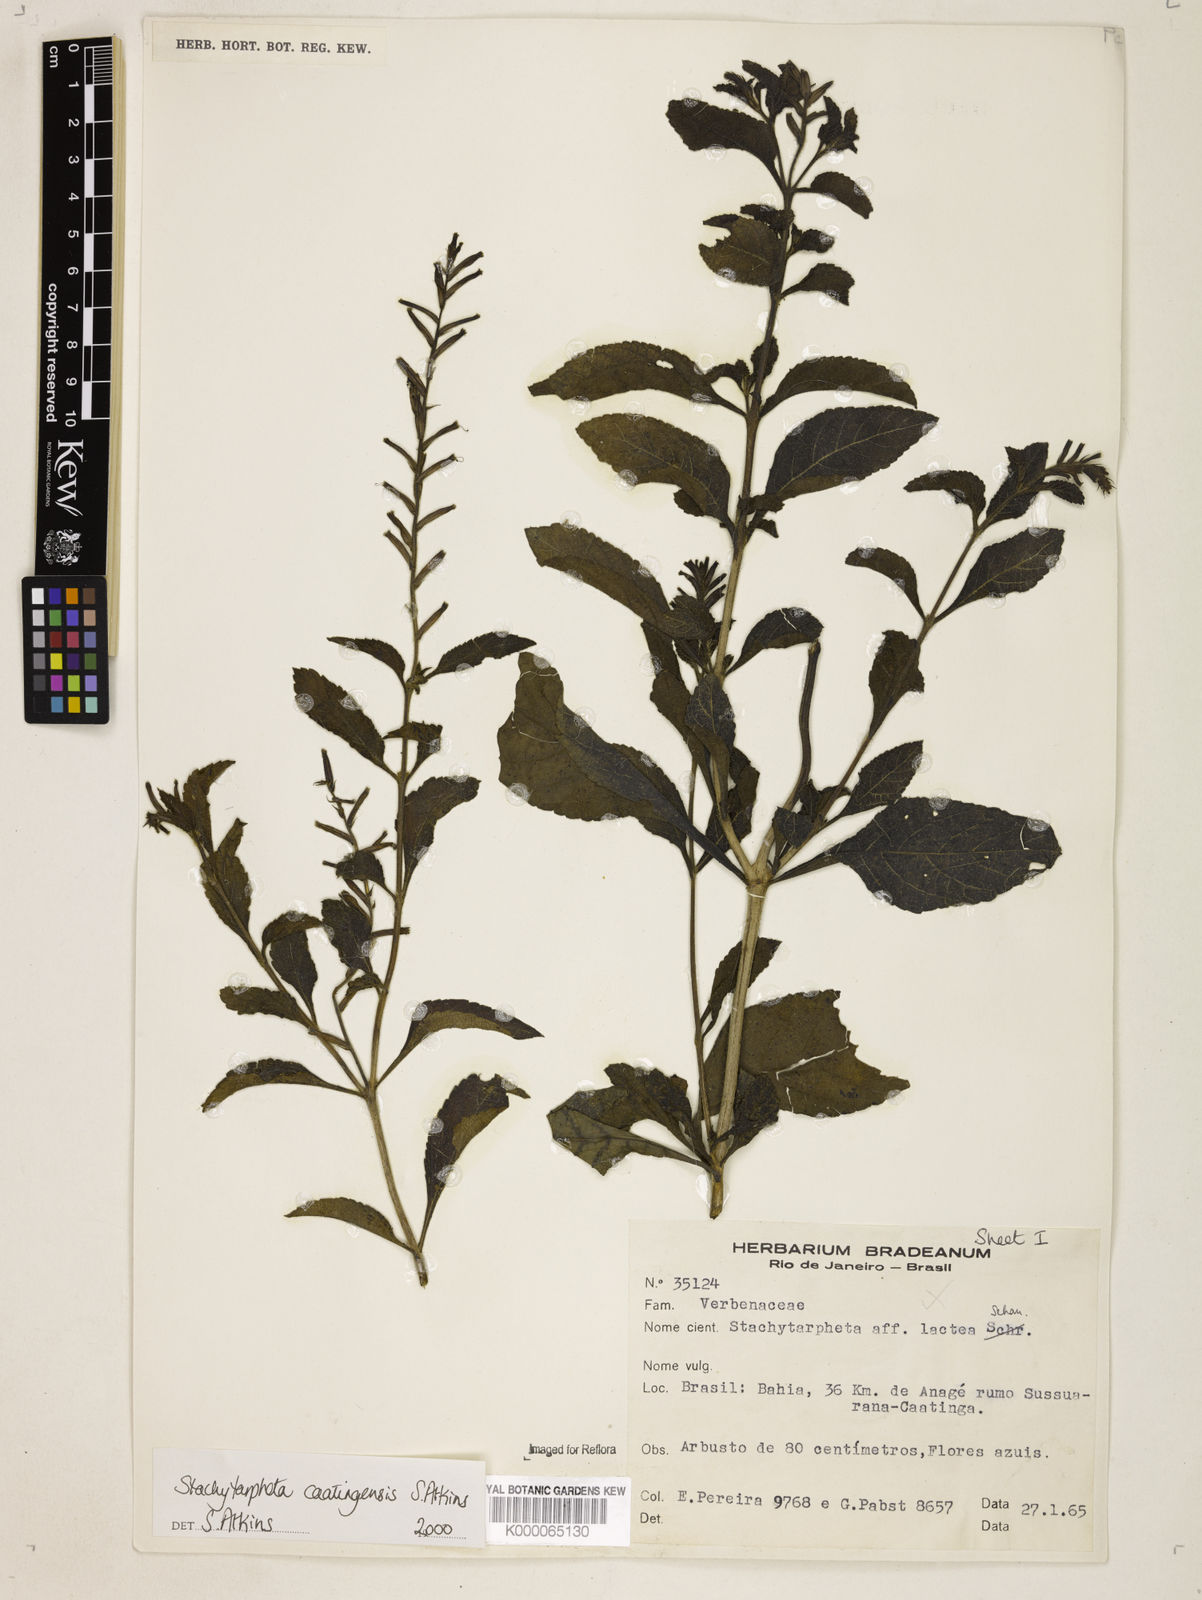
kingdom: Plantae
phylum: Tracheophyta
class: Magnoliopsida
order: Lamiales
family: Verbenaceae
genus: Stachytarpheta
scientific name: Stachytarpheta brasiliensis
